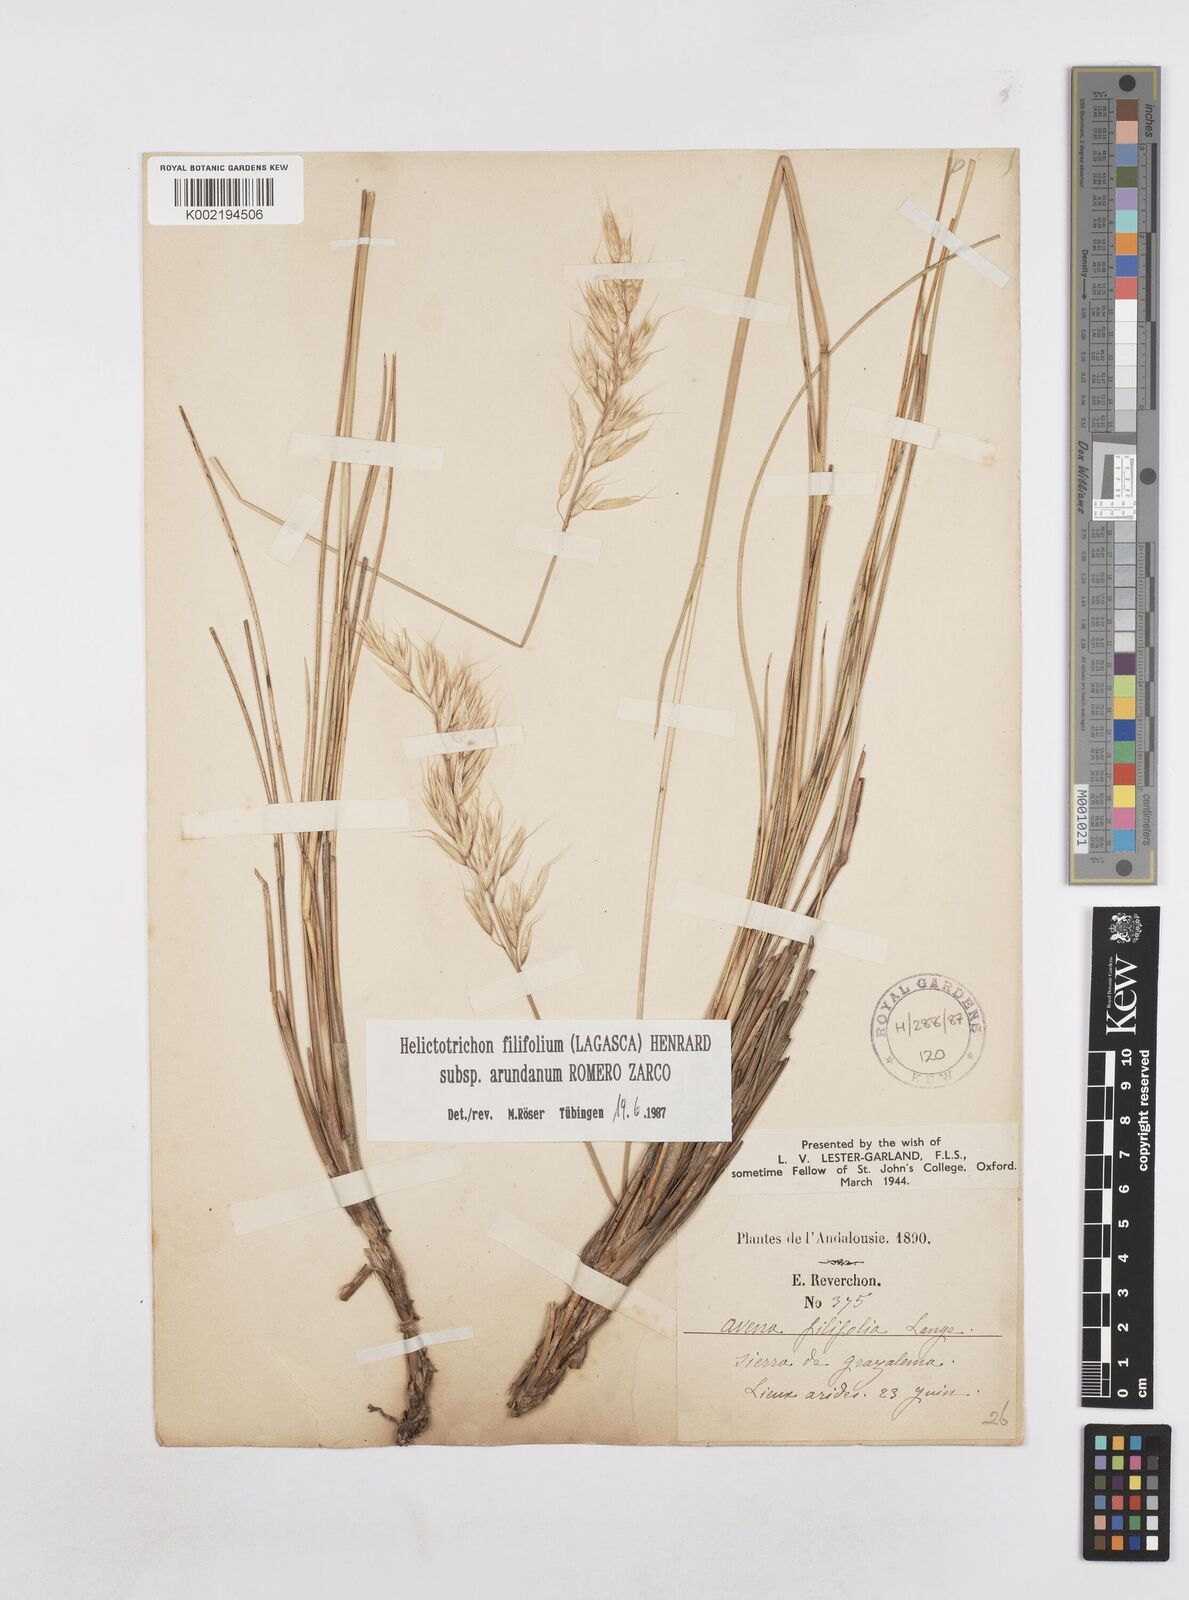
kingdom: Plantae
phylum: Tracheophyta
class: Liliopsida
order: Poales
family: Poaceae
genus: Helictotrichon
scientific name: Helictotrichon filifolium
